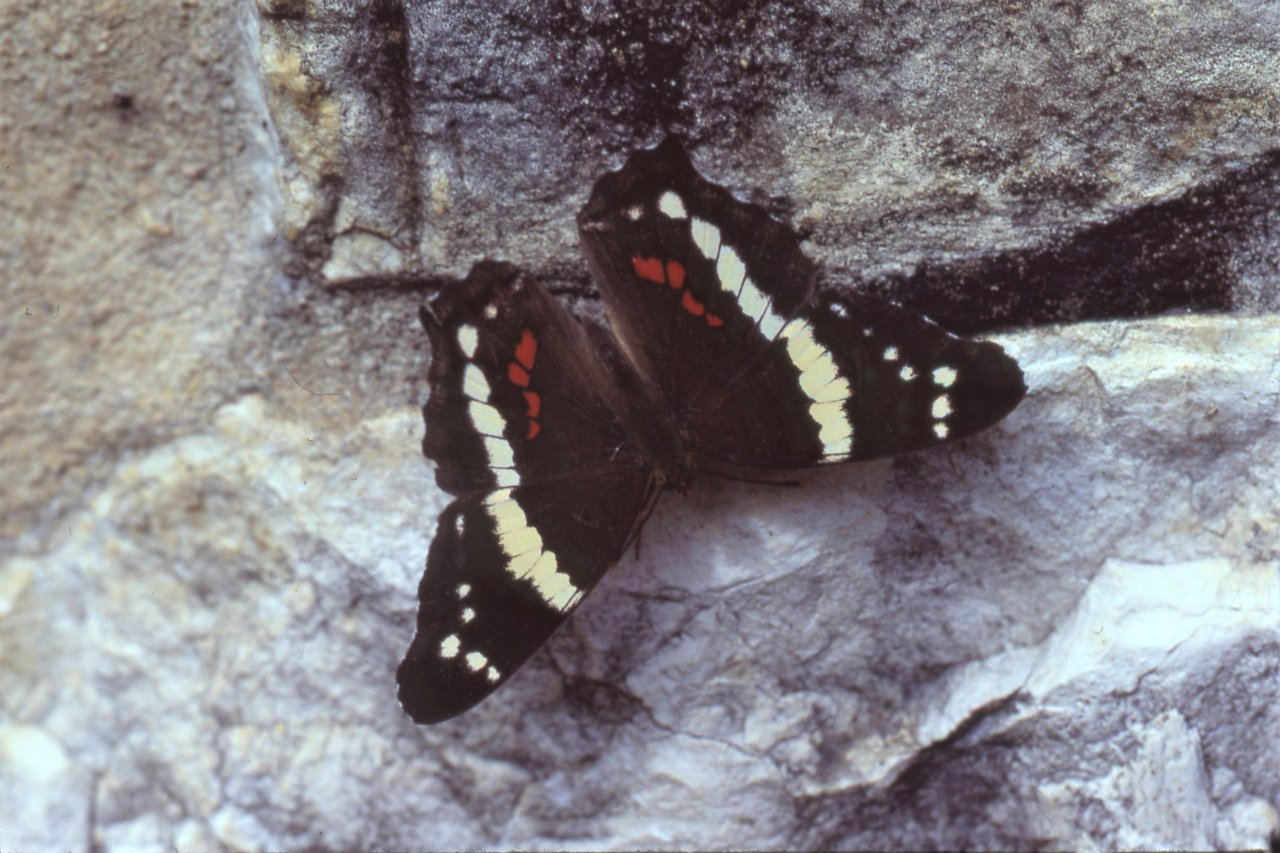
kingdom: Animalia
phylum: Arthropoda
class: Insecta
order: Lepidoptera
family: Nymphalidae
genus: Anartia
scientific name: Anartia fatima
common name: Banded Peacock
